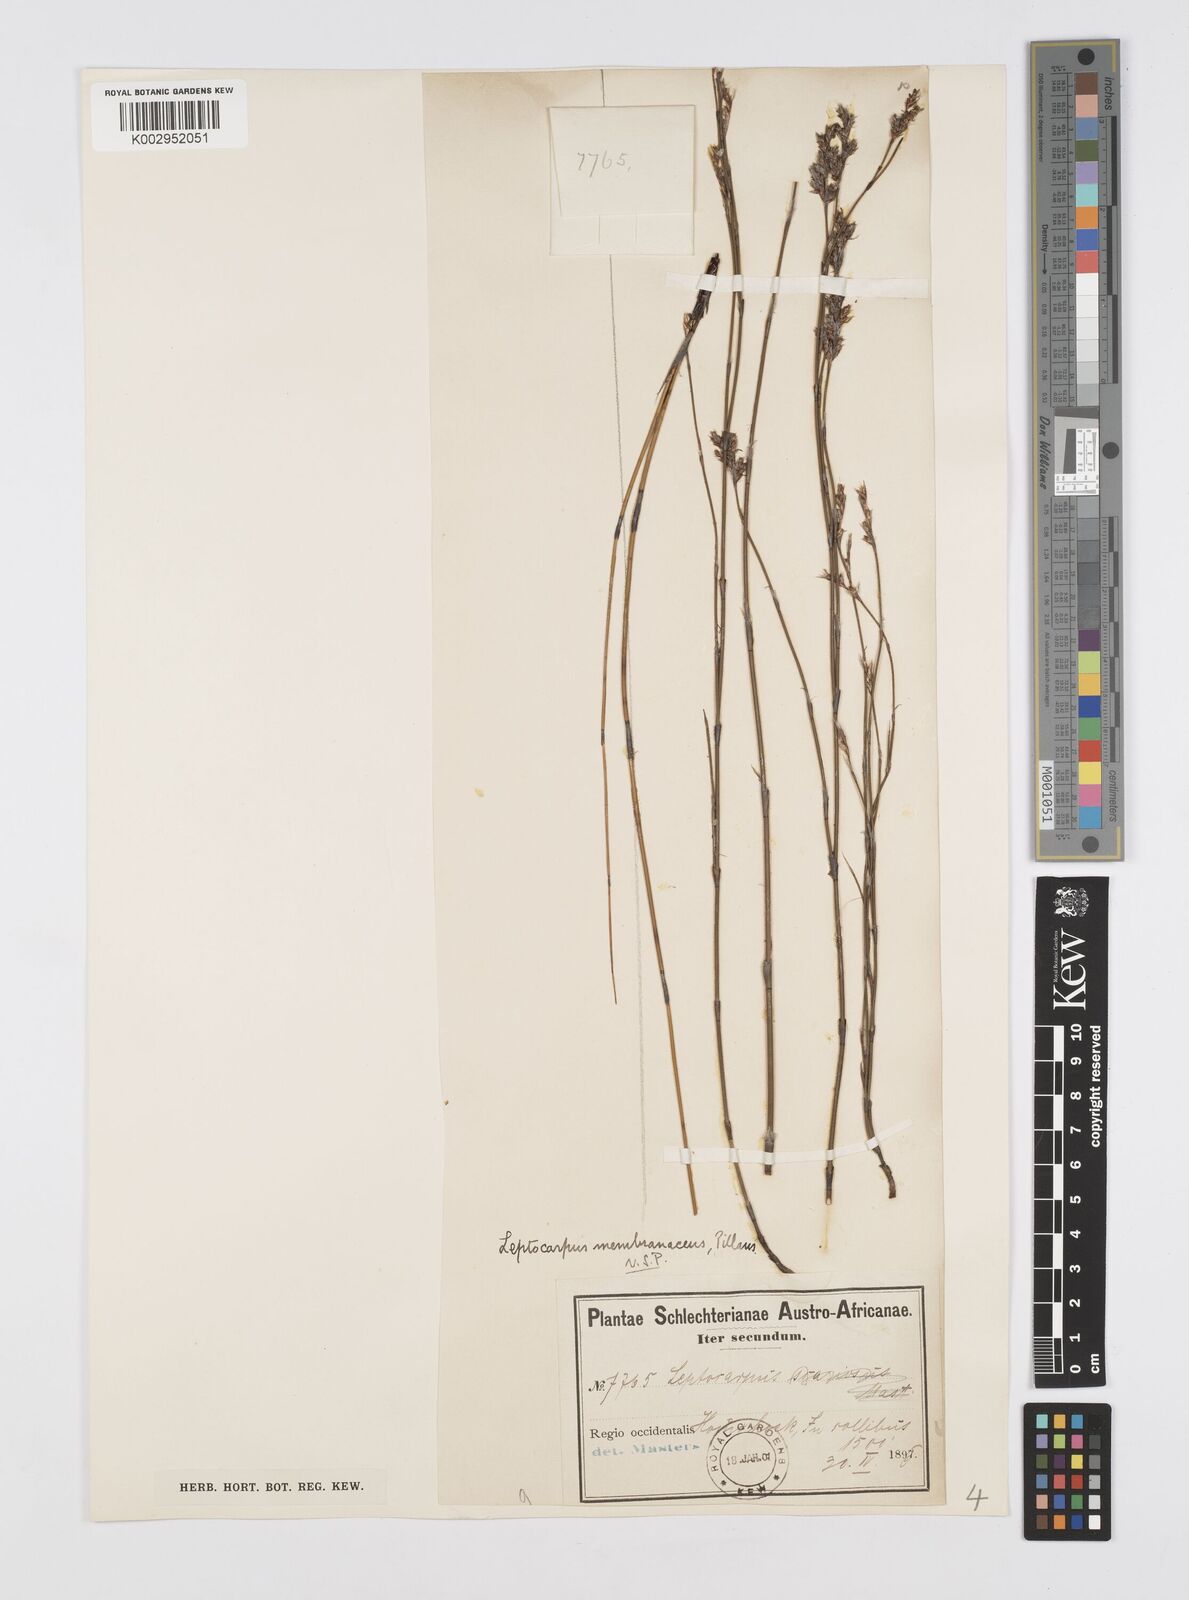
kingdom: Plantae
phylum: Tracheophyta
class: Liliopsida
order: Poales
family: Restionaceae
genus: Elegia
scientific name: Elegia intermedia
